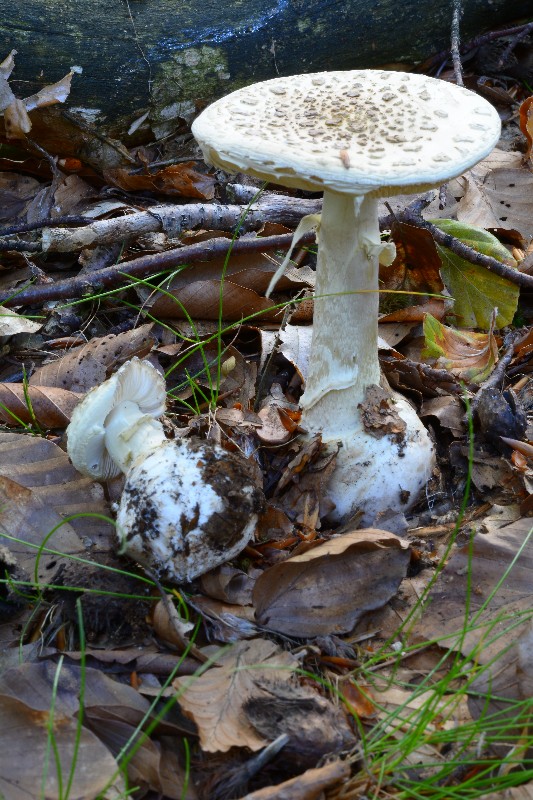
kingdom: Fungi
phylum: Basidiomycota
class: Agaricomycetes
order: Agaricales
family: Amanitaceae
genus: Amanita
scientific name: Amanita citrina
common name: kugleknoldet fluesvamp
